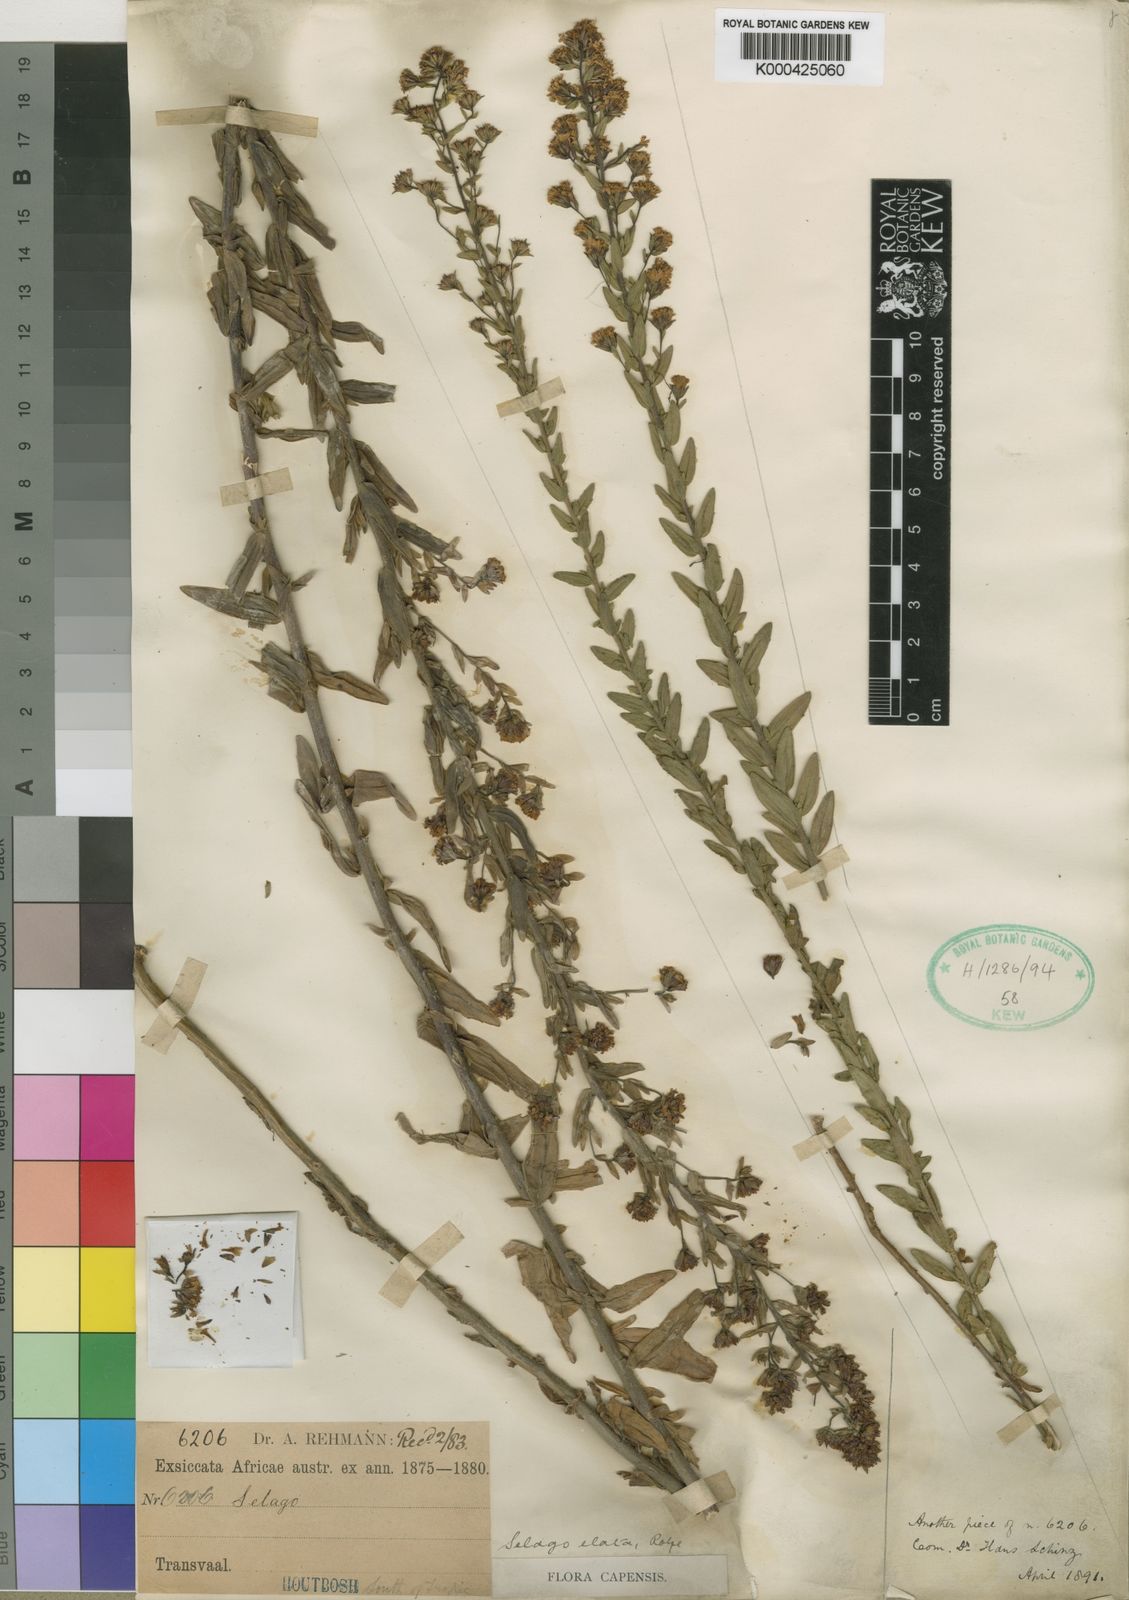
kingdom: Plantae
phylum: Tracheophyta
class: Magnoliopsida
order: Lamiales
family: Scrophulariaceae
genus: Selago
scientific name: Selago procera
